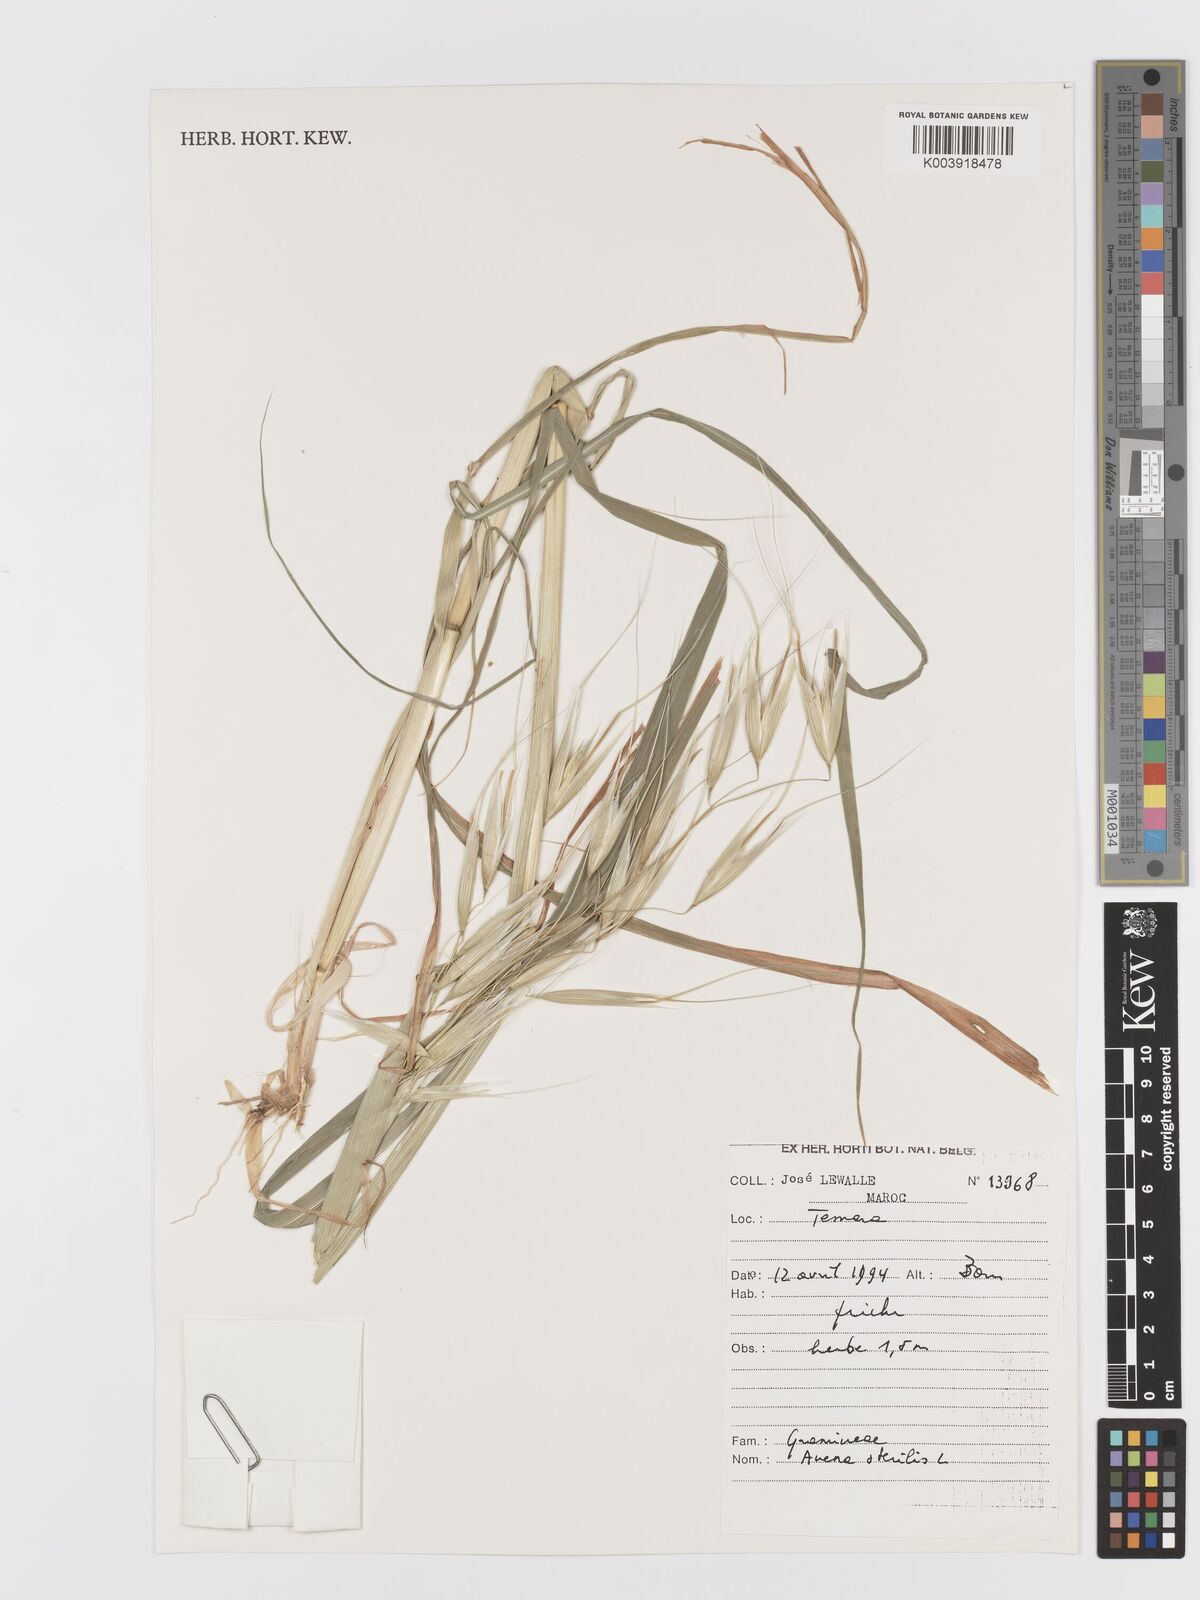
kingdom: Plantae
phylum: Tracheophyta
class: Liliopsida
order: Poales
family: Poaceae
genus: Avena
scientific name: Avena sterilis
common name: Animated oat
